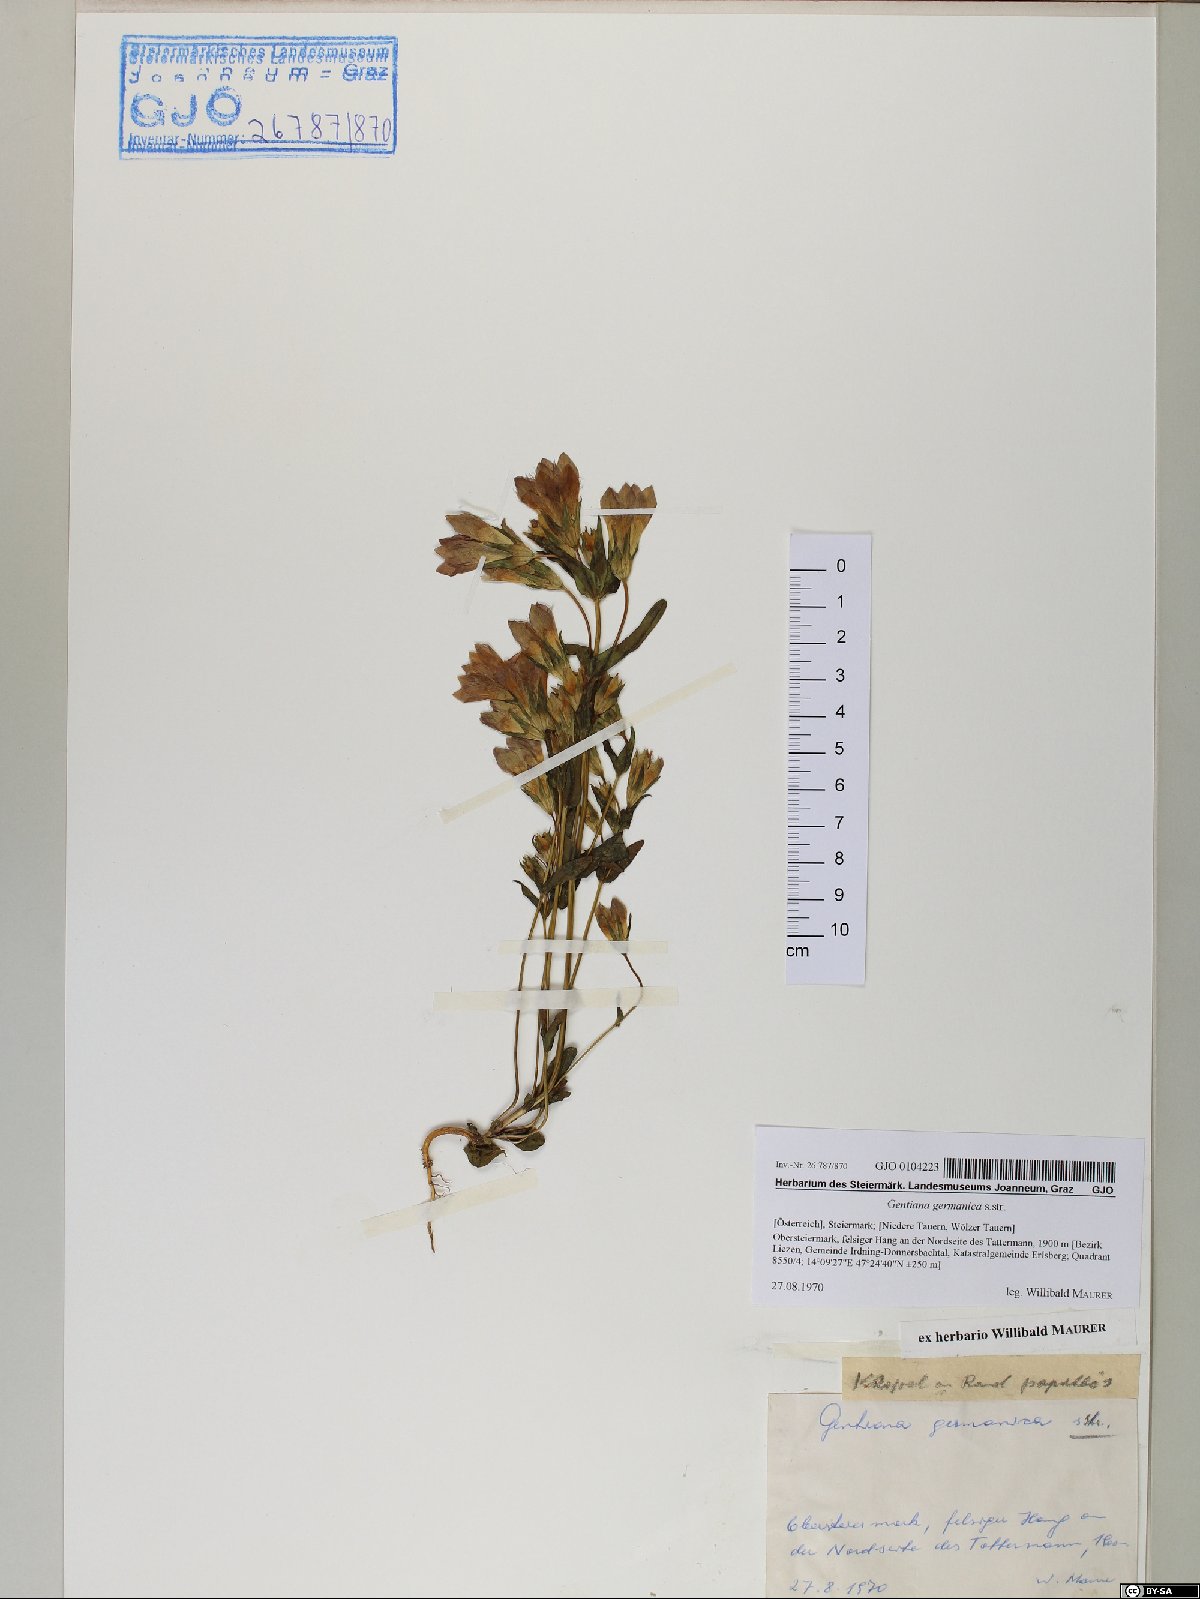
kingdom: Plantae
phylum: Tracheophyta
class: Magnoliopsida
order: Gentianales
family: Gentianaceae
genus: Gentianella
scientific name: Gentianella germanica
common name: Chiltern-gentian
